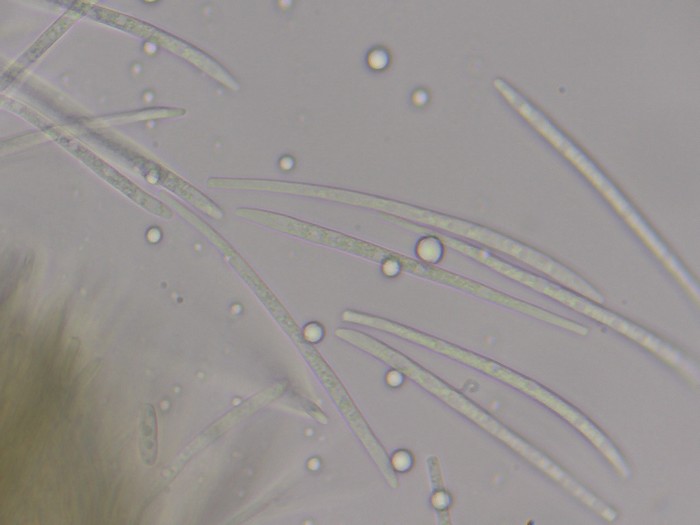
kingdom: Fungi
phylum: Ascomycota
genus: Morrisographium
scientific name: Morrisographium ulmi
